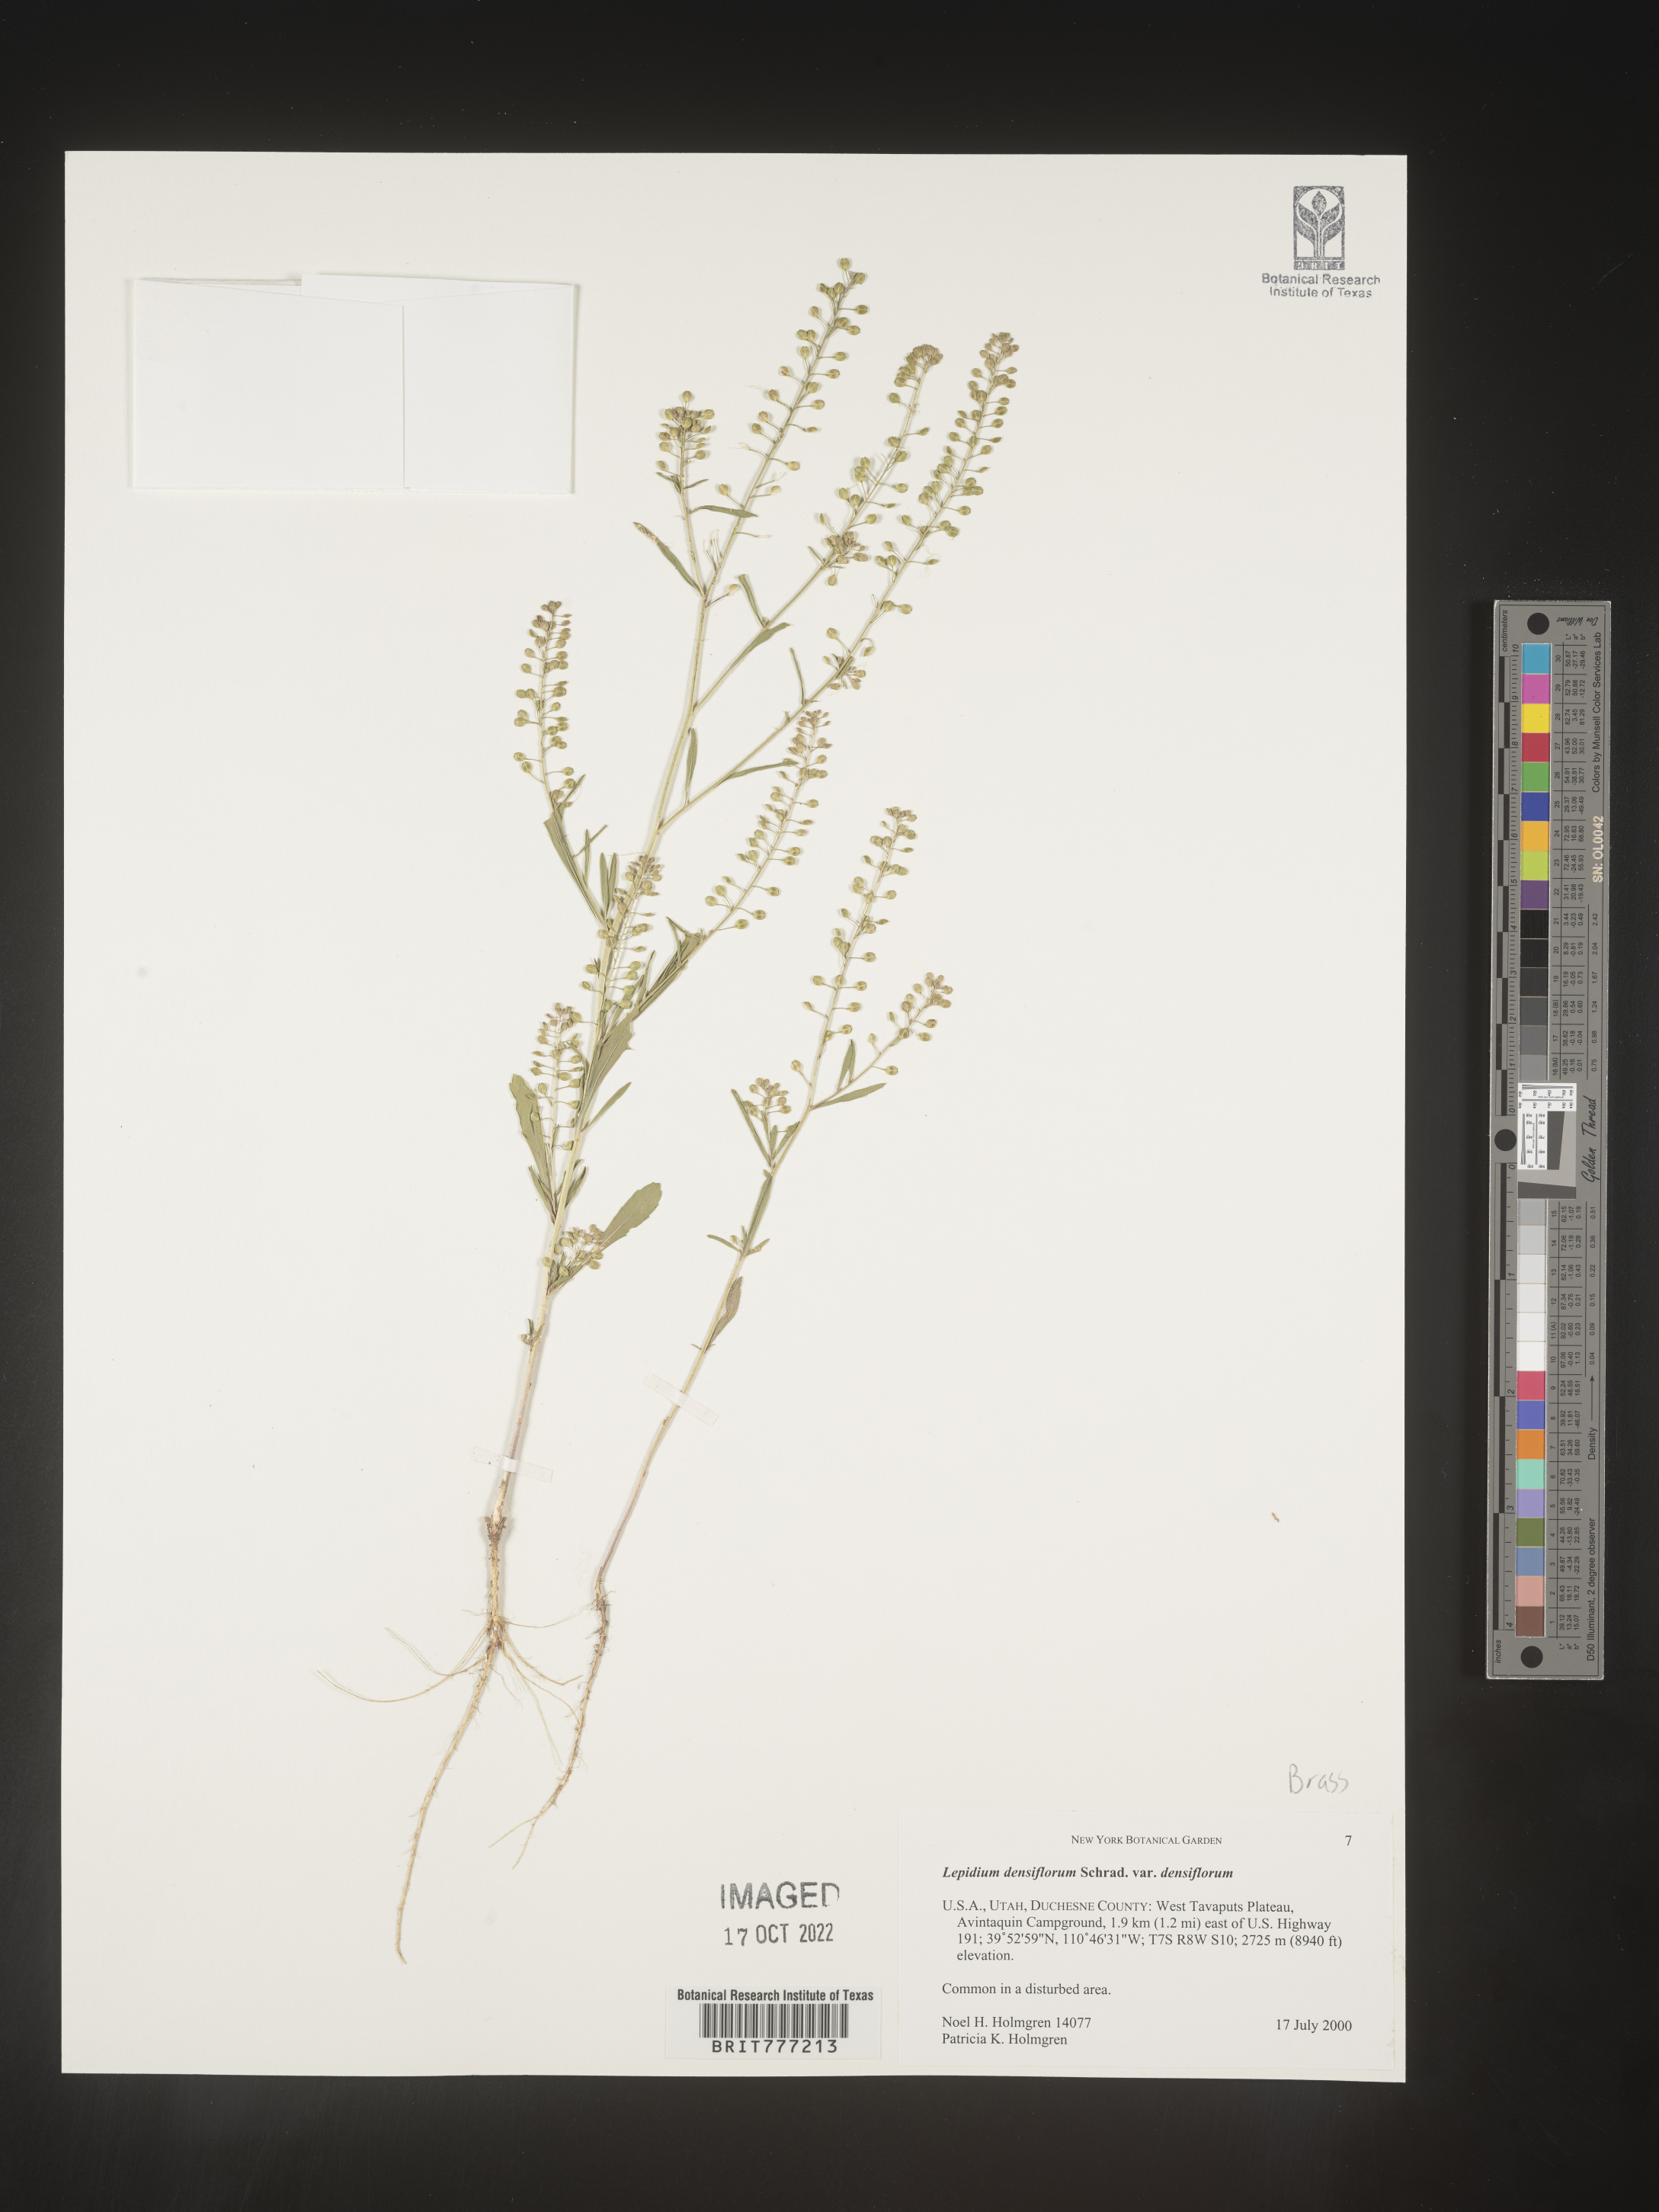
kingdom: Plantae
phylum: Tracheophyta
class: Magnoliopsida
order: Brassicales
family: Brassicaceae
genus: Lepidium
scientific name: Lepidium densiflorum
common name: Miner's pepperwort
